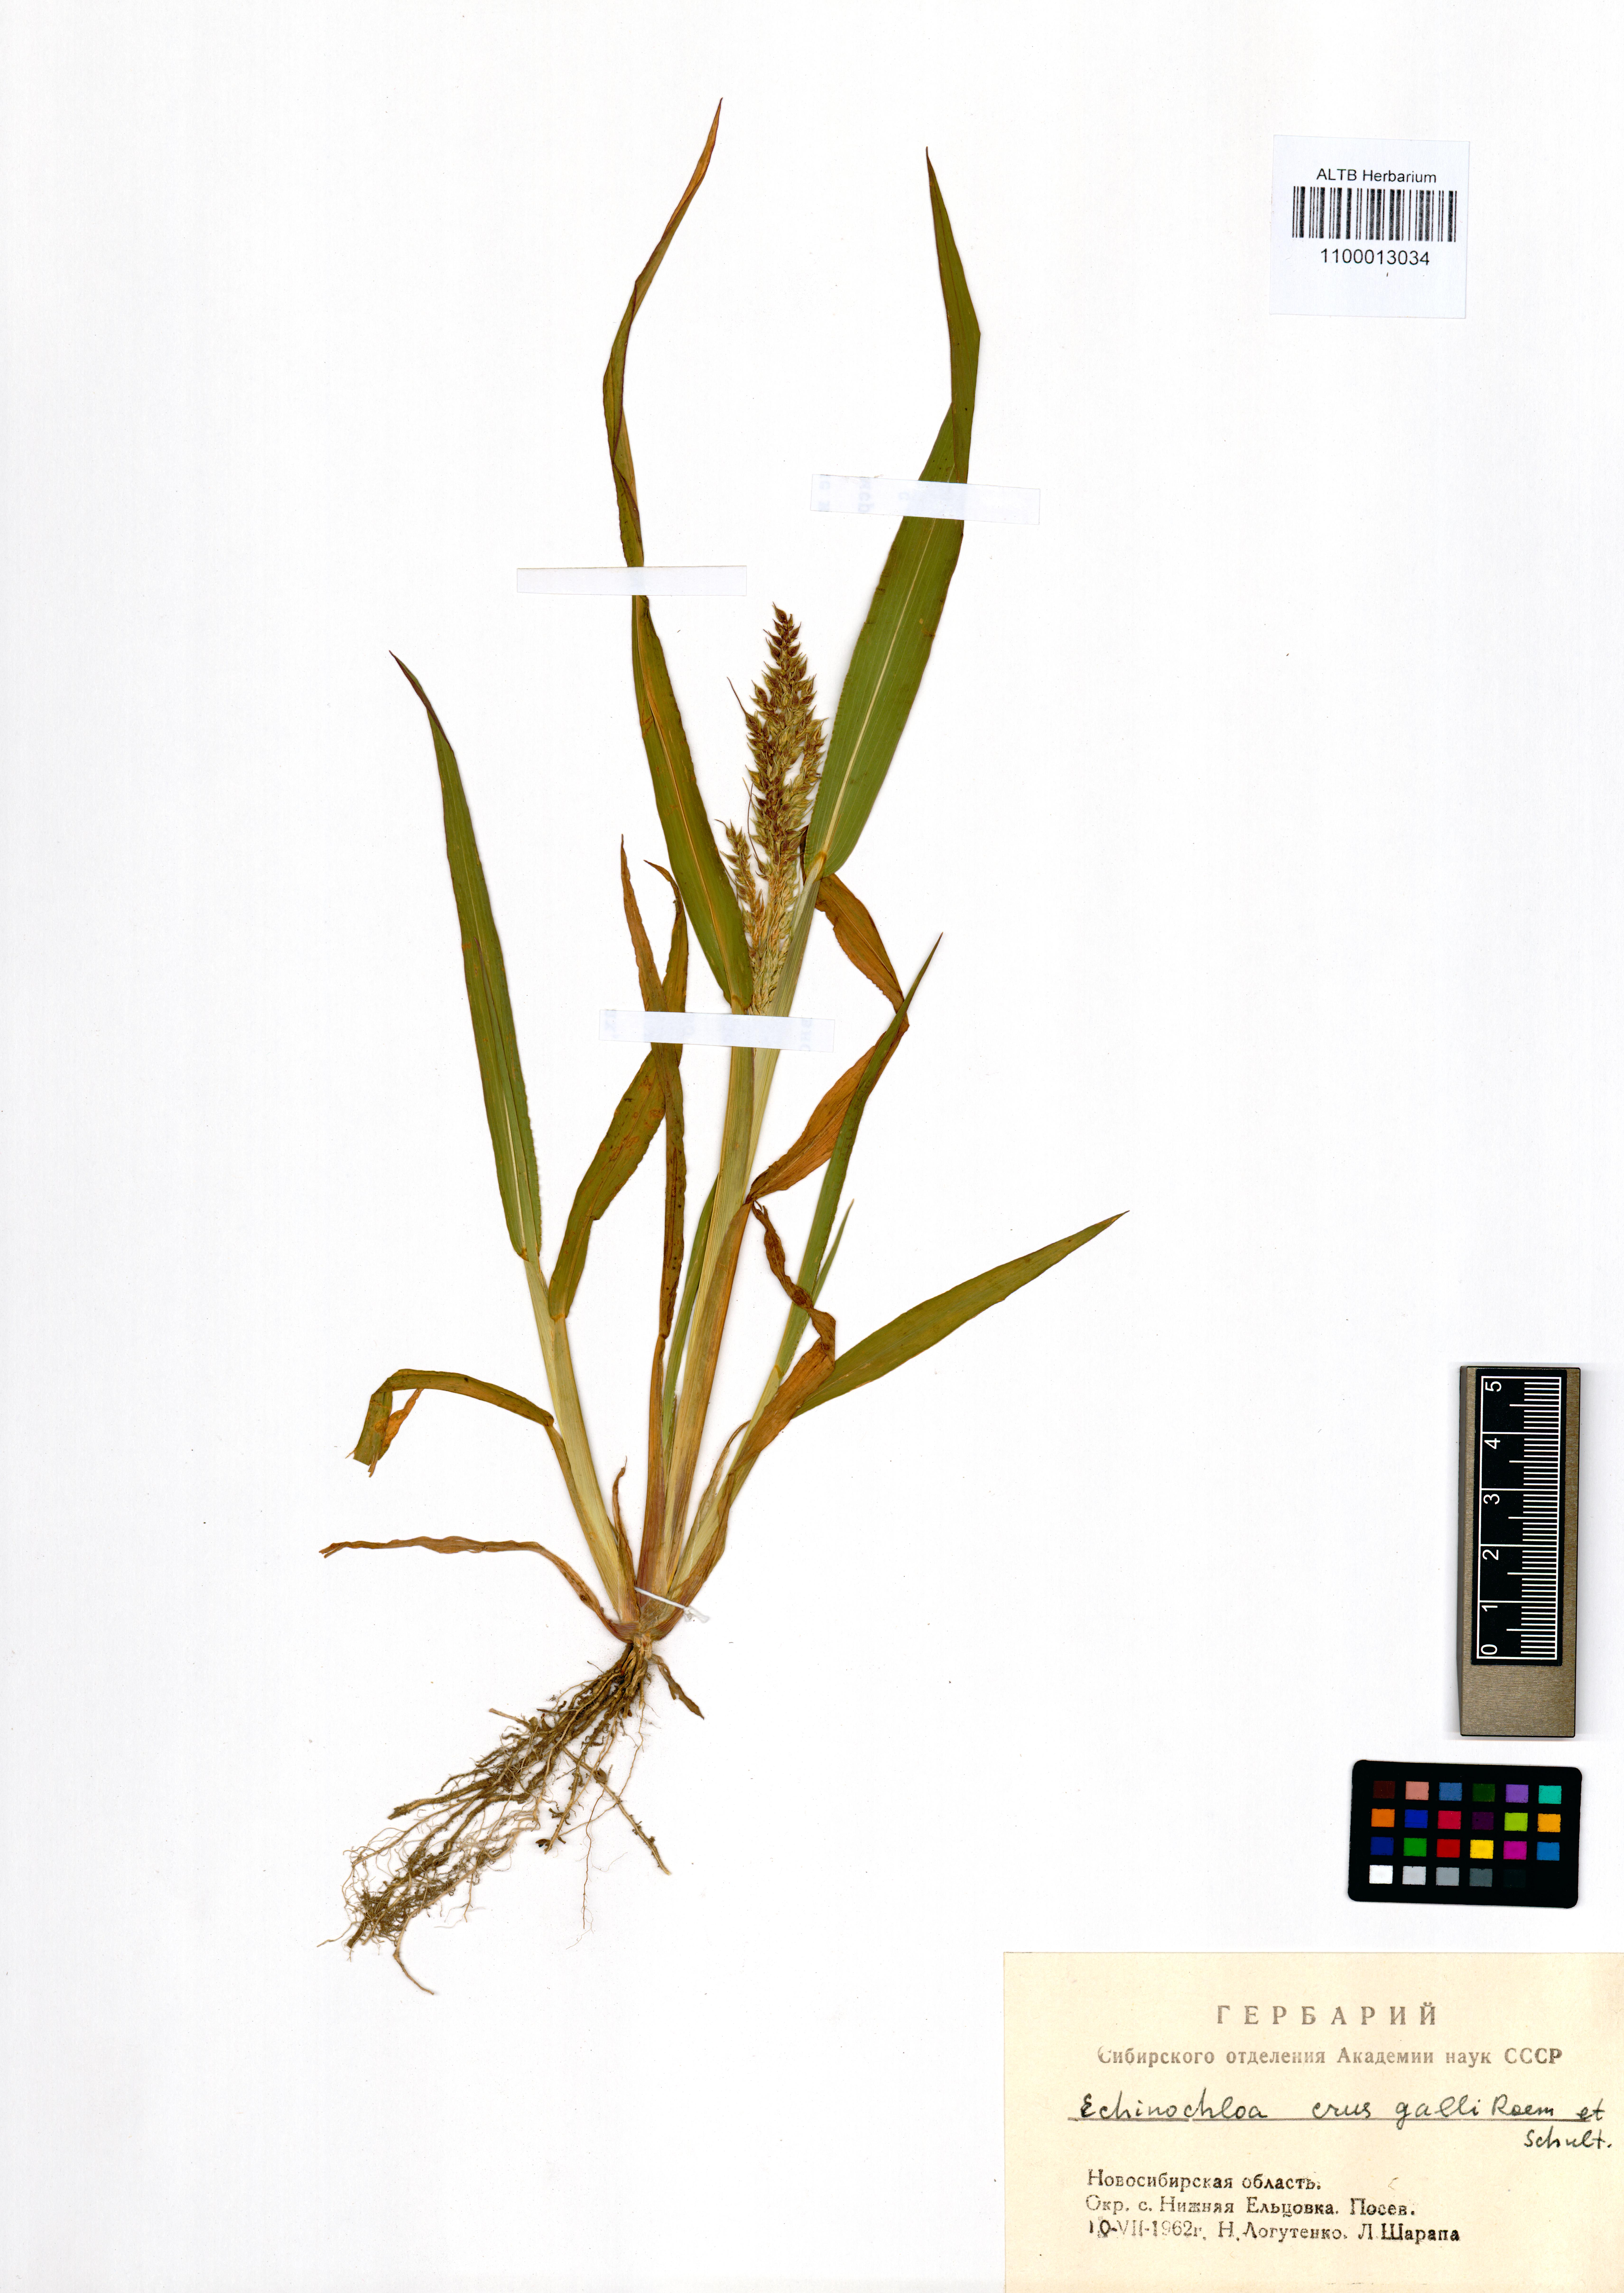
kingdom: Plantae
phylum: Tracheophyta
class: Liliopsida
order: Poales
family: Poaceae
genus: Echinochloa
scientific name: Echinochloa crus-galli
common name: Cockspur
